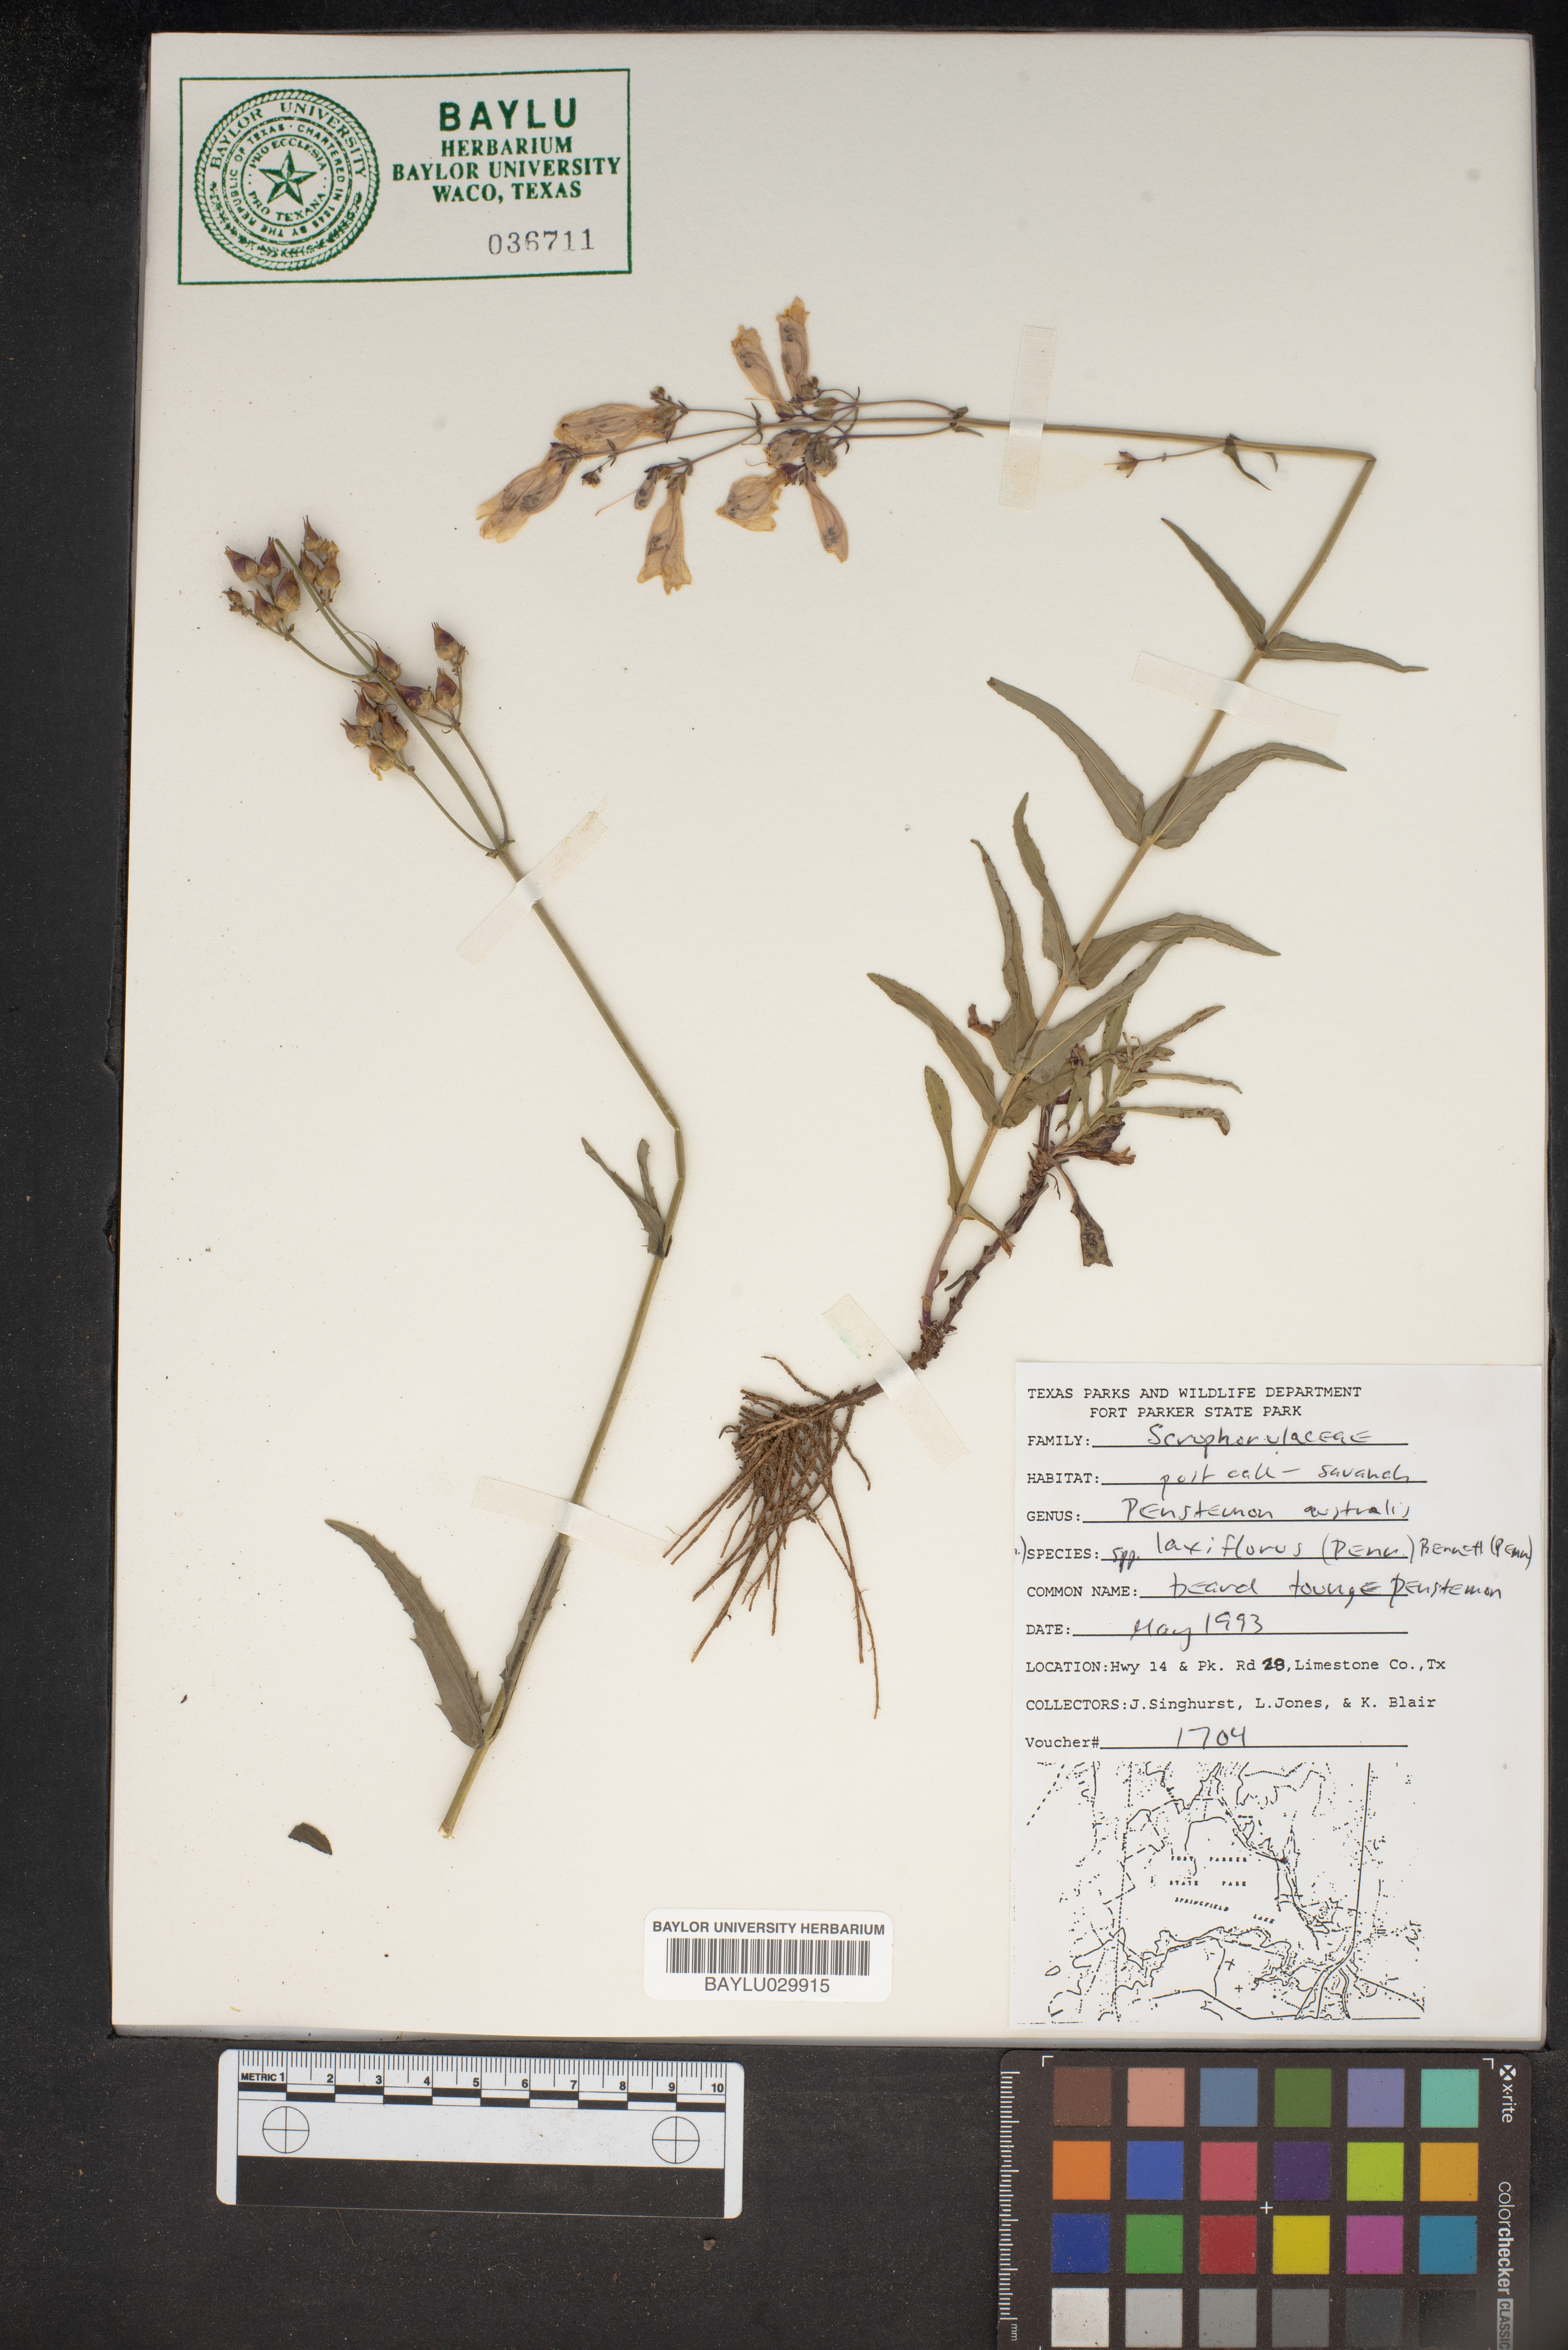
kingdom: Plantae
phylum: Tracheophyta
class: Magnoliopsida
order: Lamiales
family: Plantaginaceae
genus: Penstemon
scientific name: Penstemon australis
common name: Southeastern beardtongue
